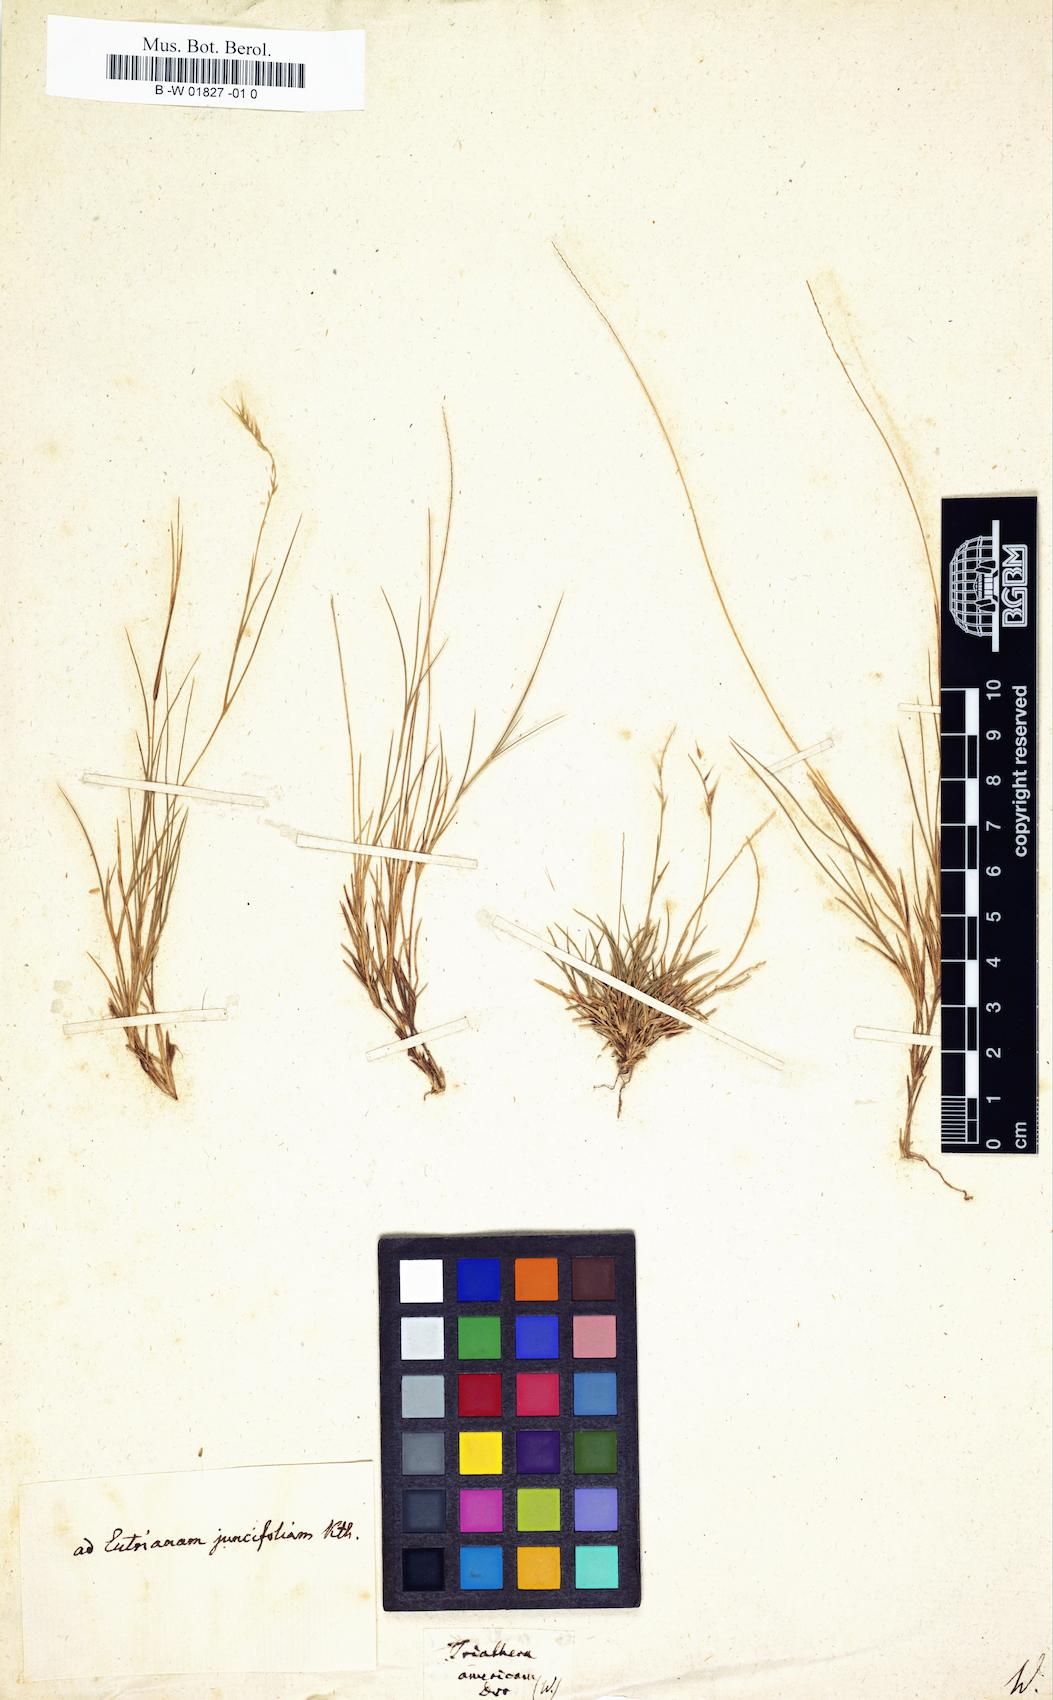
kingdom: Plantae
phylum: Tracheophyta
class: Liliopsida
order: Poales
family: Poaceae
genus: Bouteloua
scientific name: Bouteloua americana
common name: Mule grass
